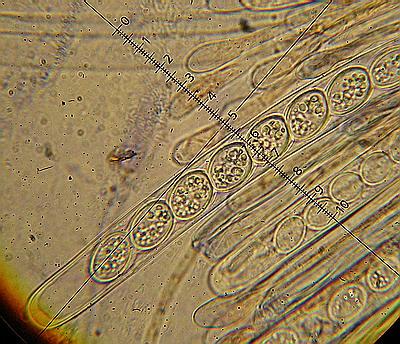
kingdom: Fungi
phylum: Ascomycota
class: Pezizomycetes
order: Pezizales
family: Pyronemataceae
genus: Scutellinia
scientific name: Scutellinia scutellata
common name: frynset skjoldbæger
